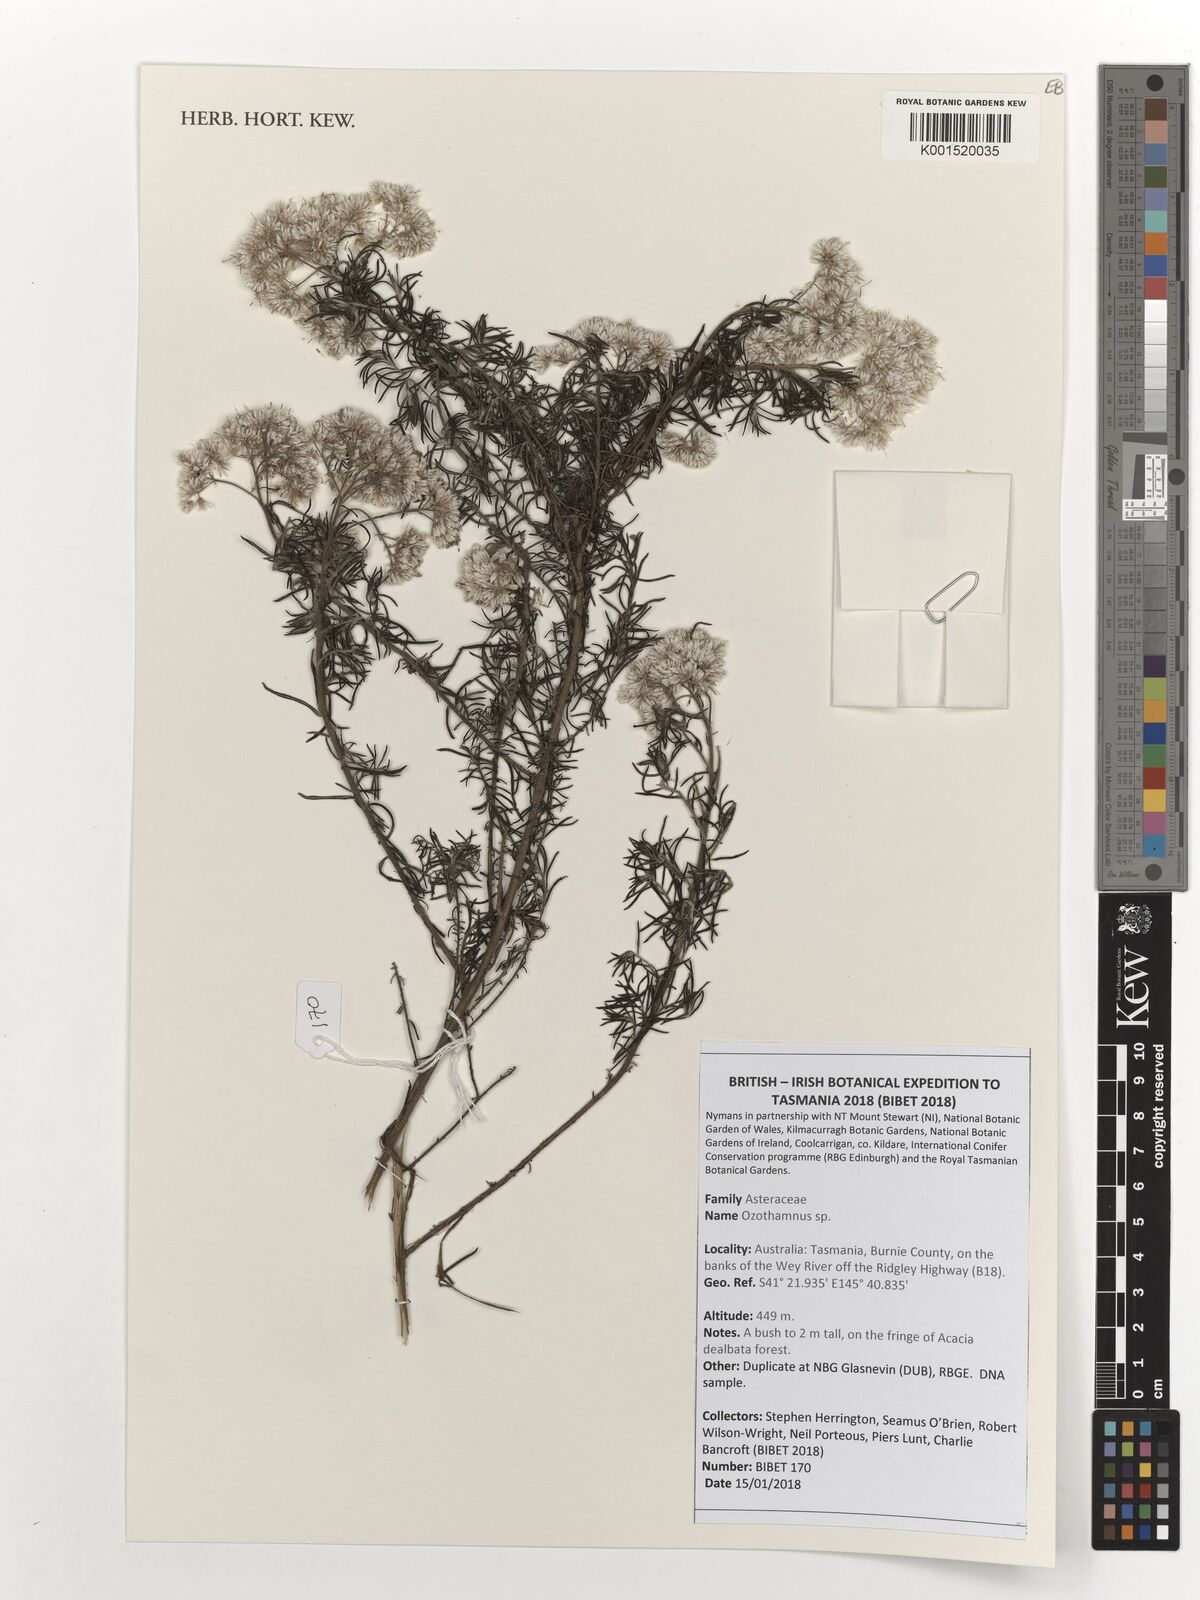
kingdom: Plantae
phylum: Tracheophyta
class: Magnoliopsida
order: Asterales
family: Asteraceae
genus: Ozothamnus
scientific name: Ozothamnus
